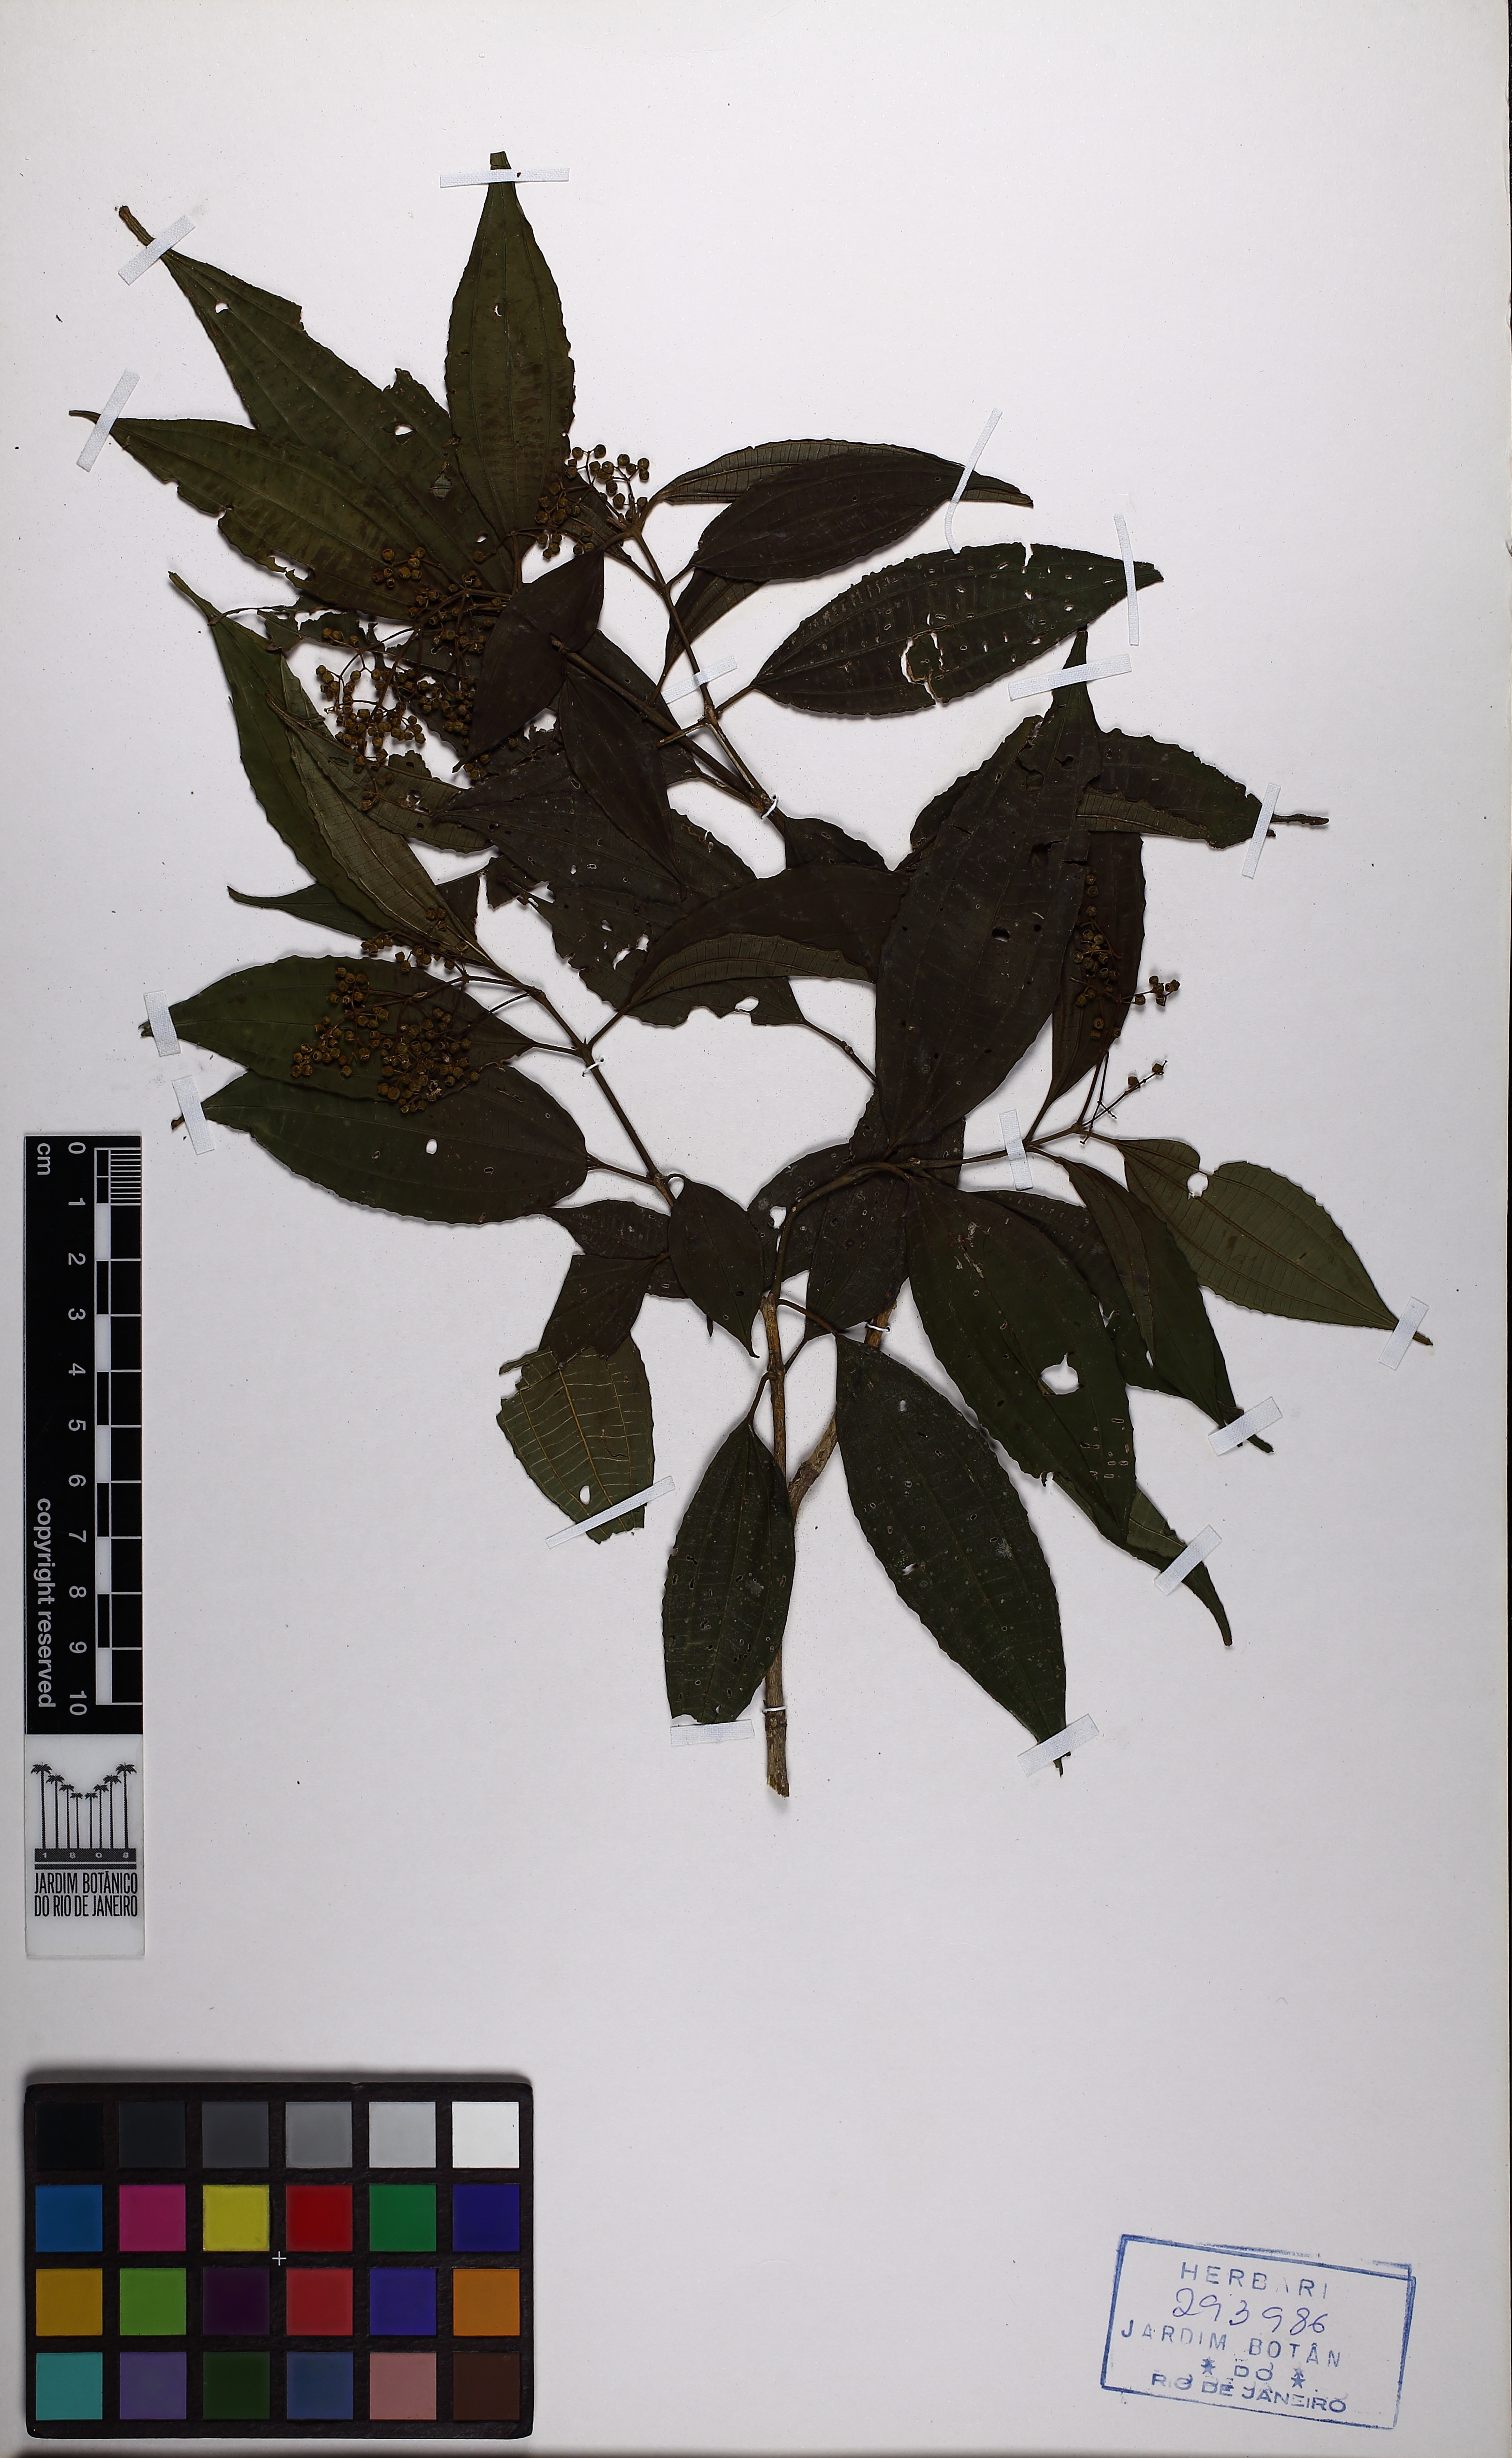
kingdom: Plantae
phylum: Tracheophyta
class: Magnoliopsida
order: Myrtales
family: Melastomataceae
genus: Miconia
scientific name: Miconia latecrenata
